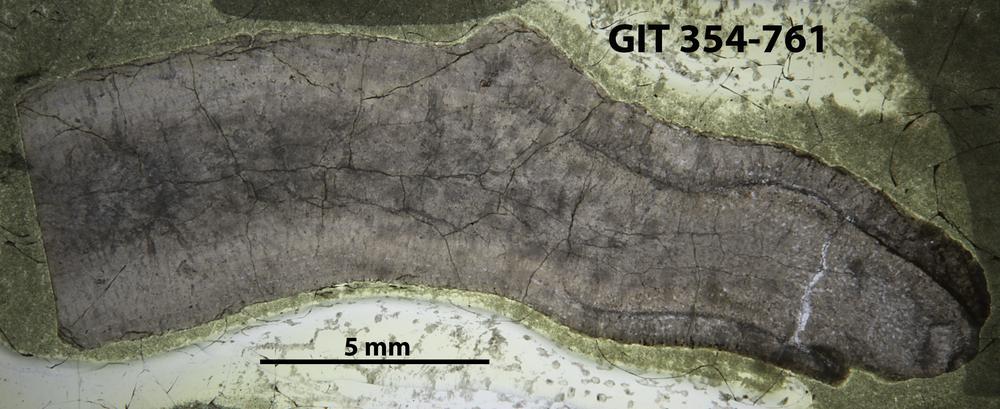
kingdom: Animalia
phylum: Nemertea
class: Hoplonemertea
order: Monostilifera
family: Amphiporidae
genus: Clathrodictyella
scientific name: Clathrodictyella
